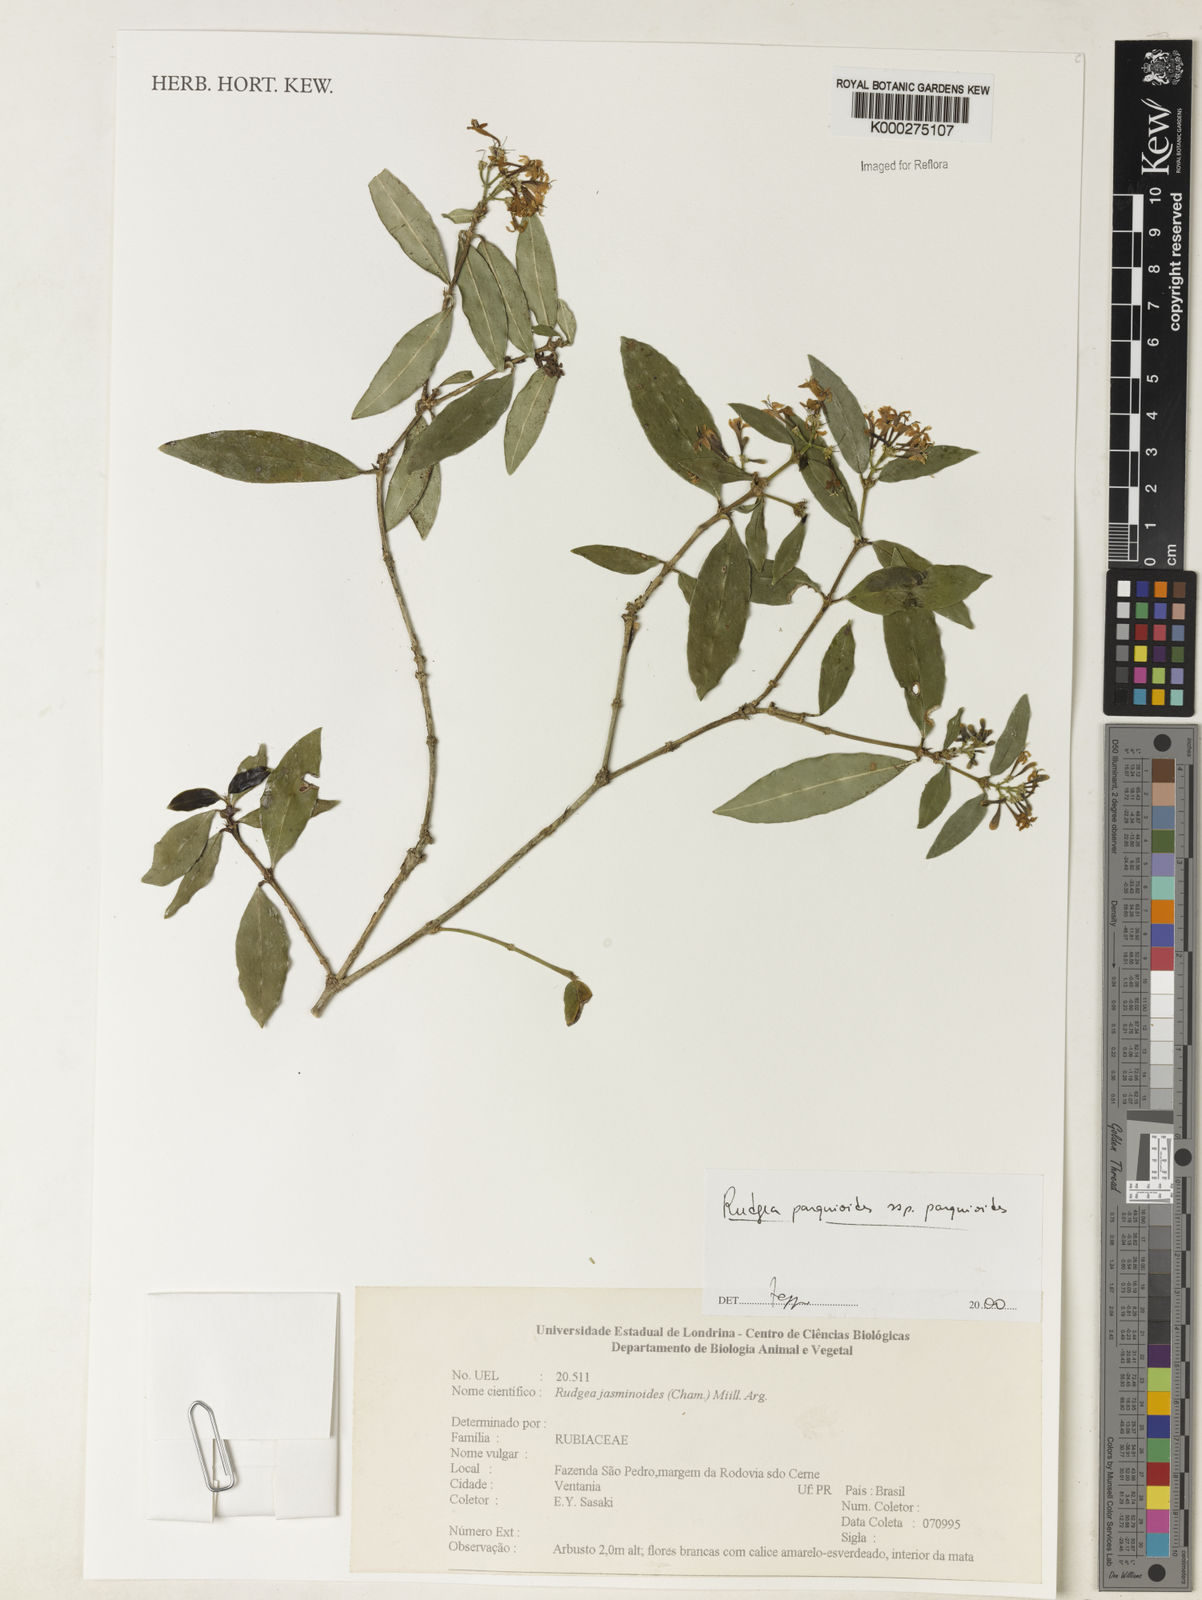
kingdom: Plantae
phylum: Tracheophyta
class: Magnoliopsida
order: Gentianales
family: Rubiaceae
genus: Rudgea
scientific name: Rudgea parquioides
